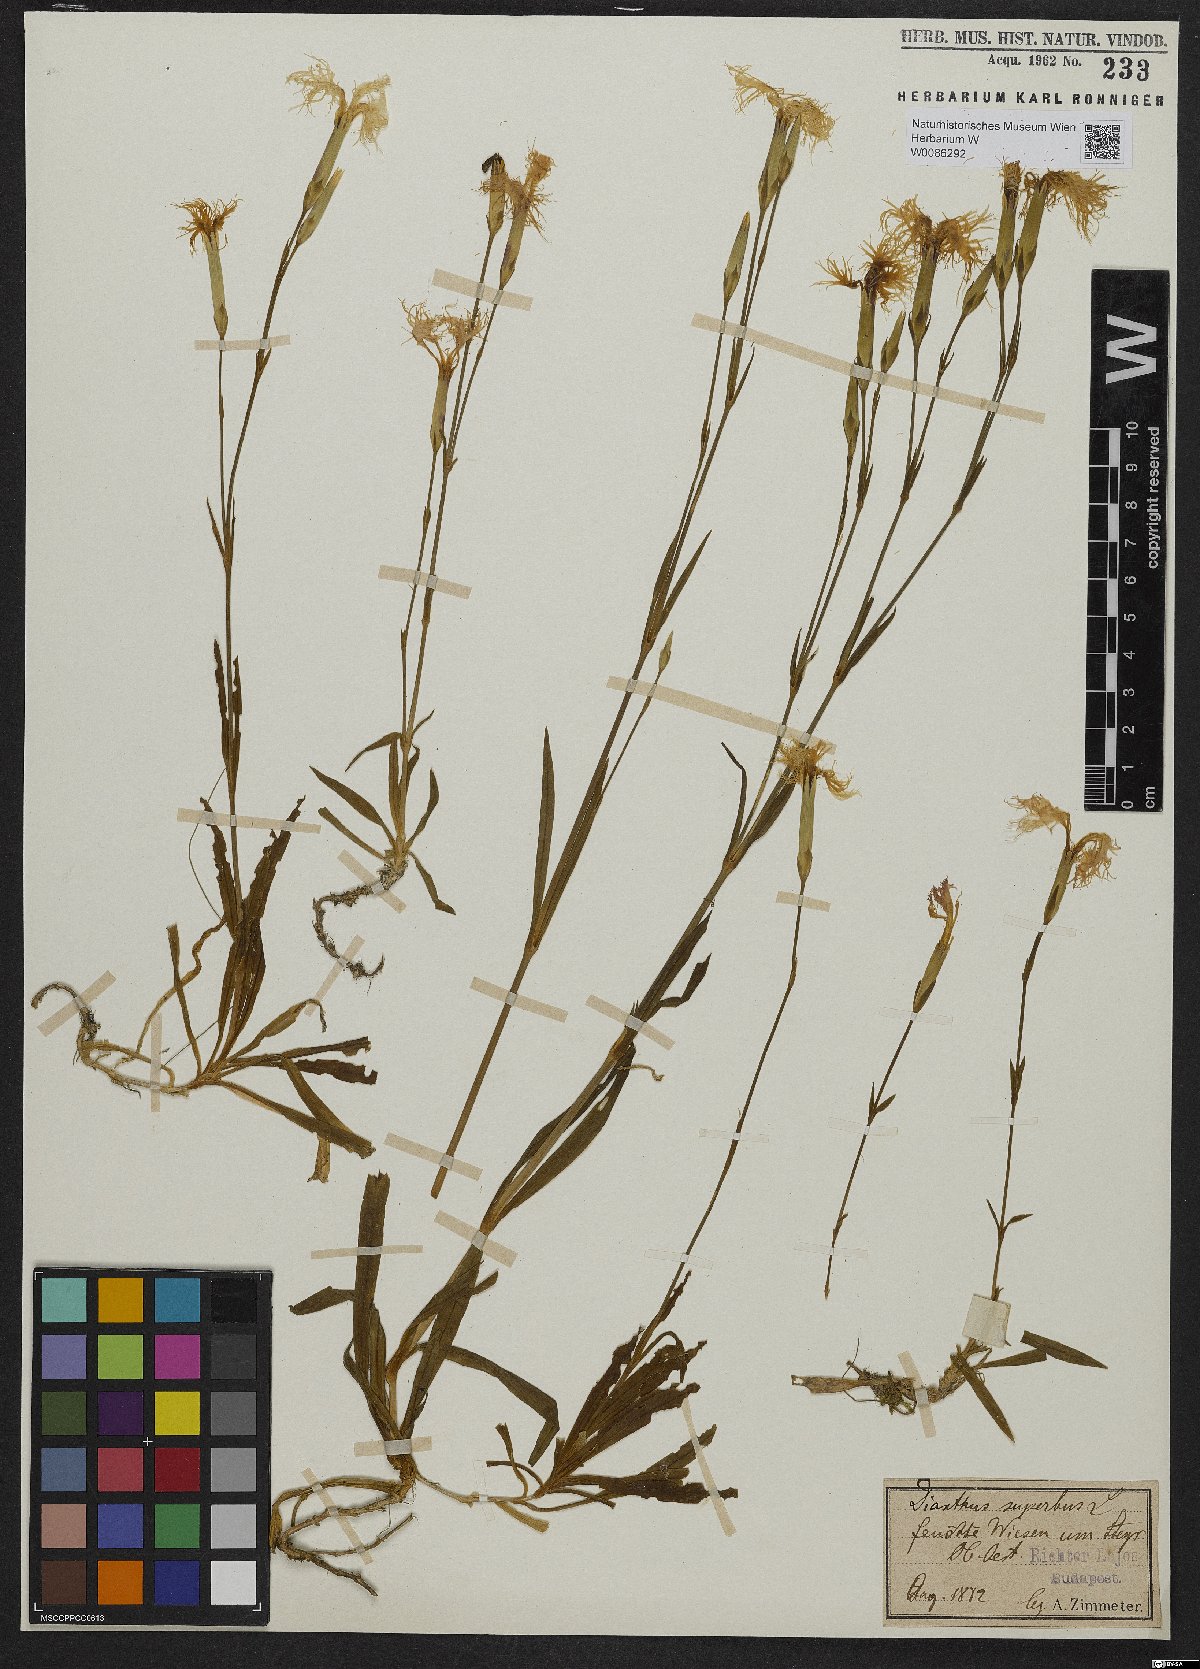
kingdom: Plantae
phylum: Tracheophyta
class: Magnoliopsida
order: Caryophyllales
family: Caryophyllaceae
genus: Dianthus
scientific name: Dianthus superbus
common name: Fringed pink
